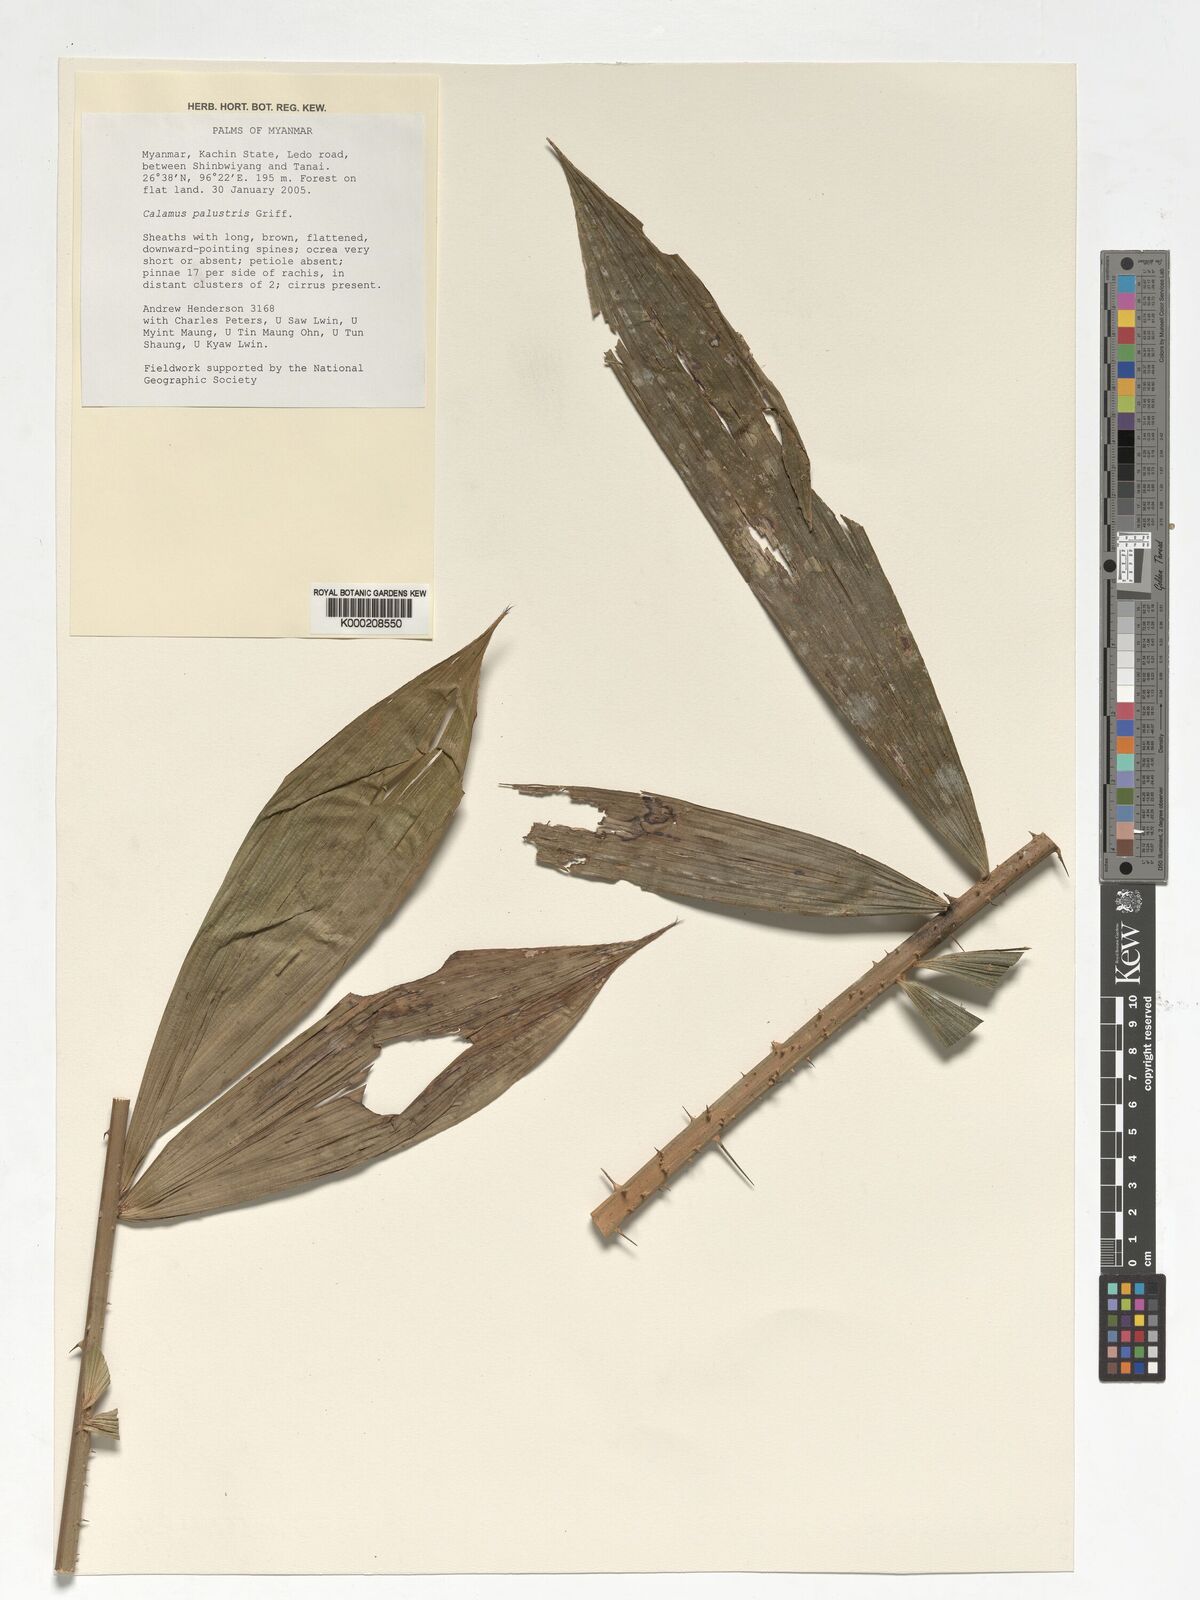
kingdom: Plantae
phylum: Tracheophyta
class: Liliopsida
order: Arecales
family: Arecaceae
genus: Calamus
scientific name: Calamus latifolius
